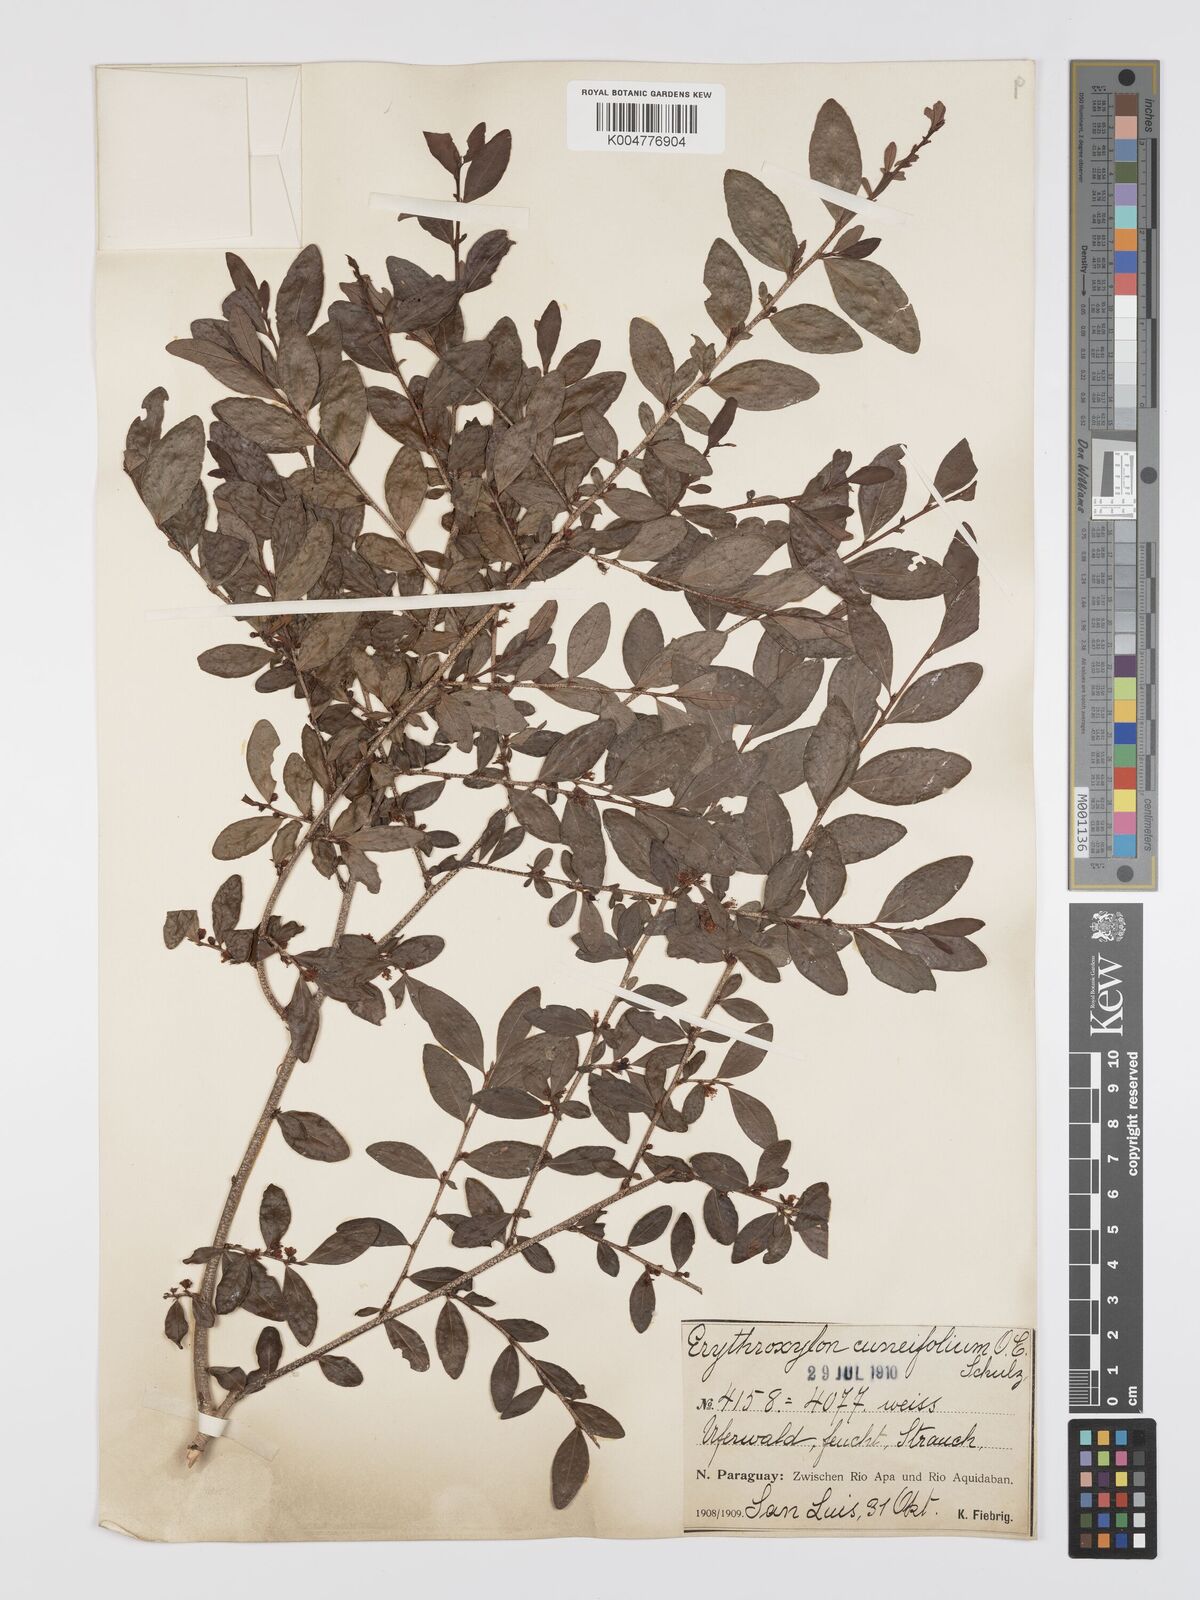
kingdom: Plantae
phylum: Tracheophyta
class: Magnoliopsida
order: Malpighiales
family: Erythroxylaceae
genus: Erythroxylum
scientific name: Erythroxylum cuneifolium
